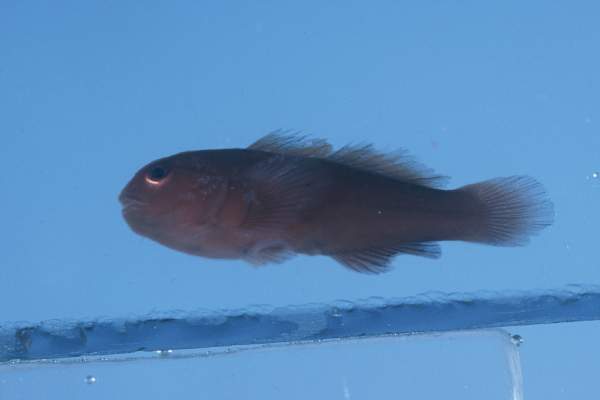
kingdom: Animalia
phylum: Chordata
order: Perciformes
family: Gobiidae
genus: Gobiodon
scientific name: Gobiodon
